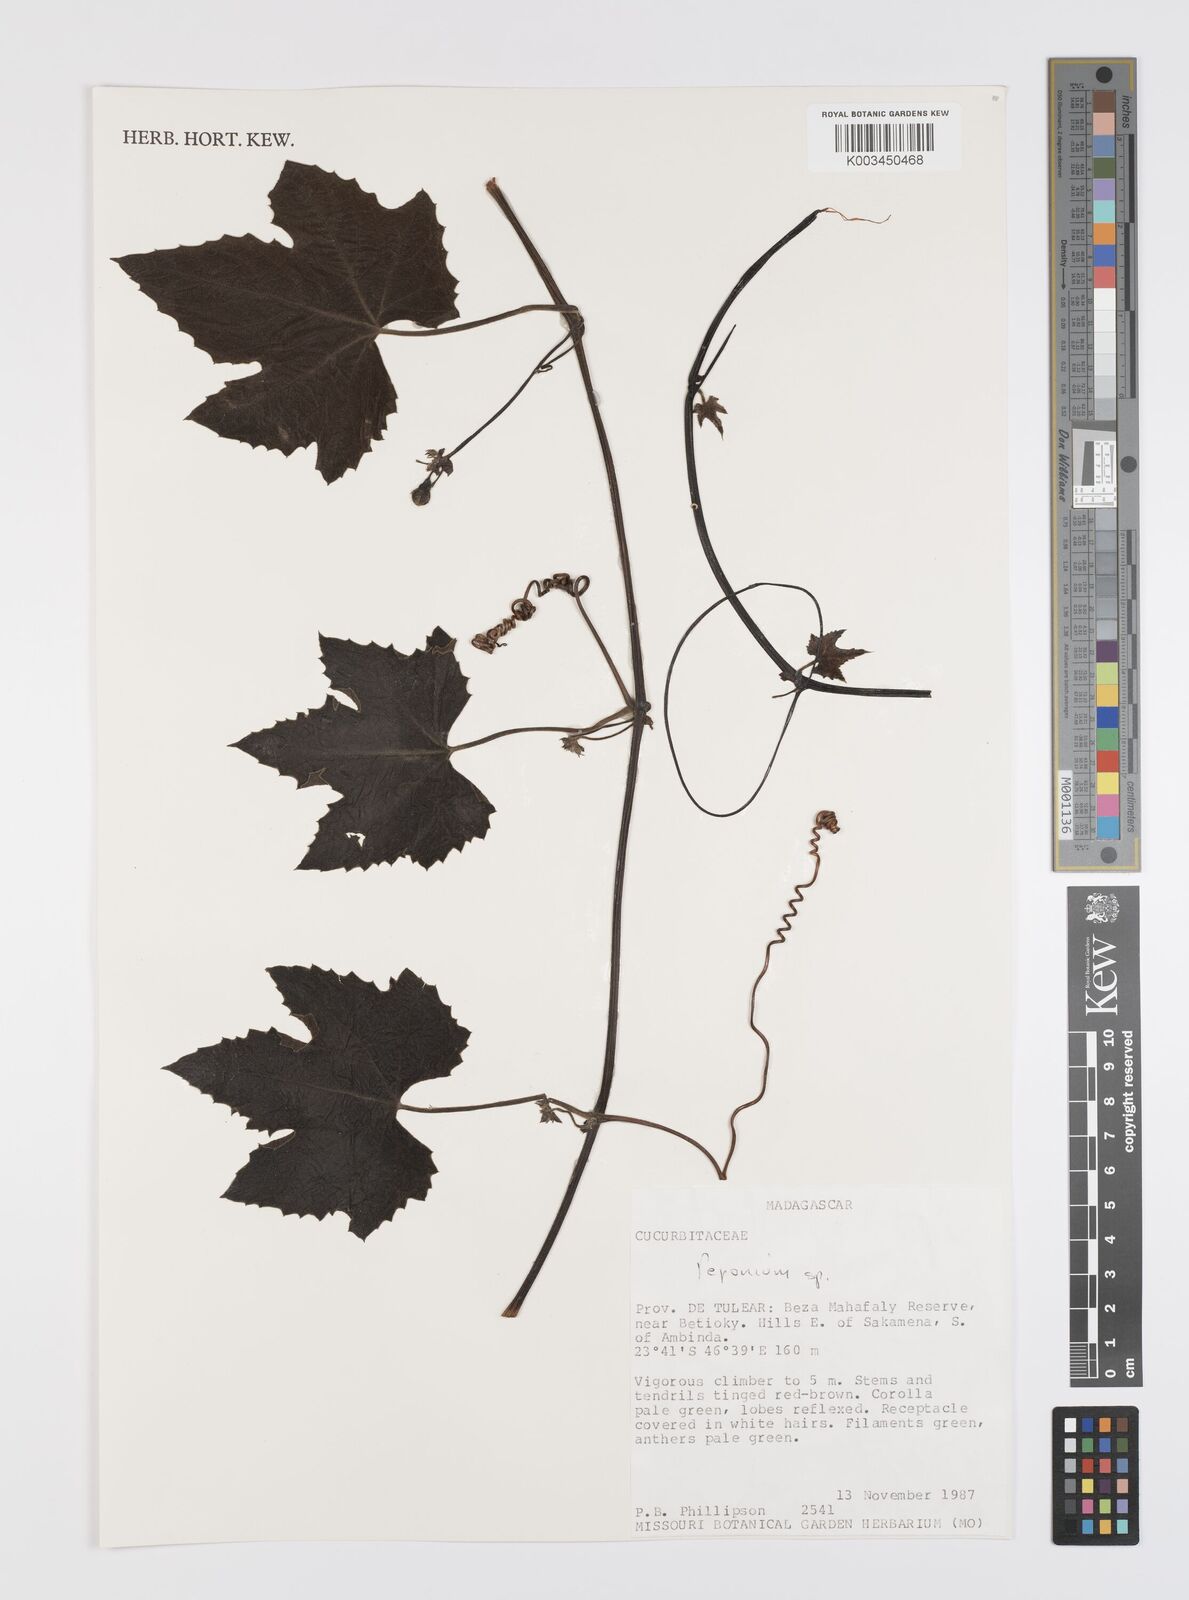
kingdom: Plantae
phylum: Tracheophyta
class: Magnoliopsida
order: Cucurbitales
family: Cucurbitaceae
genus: Peponium
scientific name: Peponium
